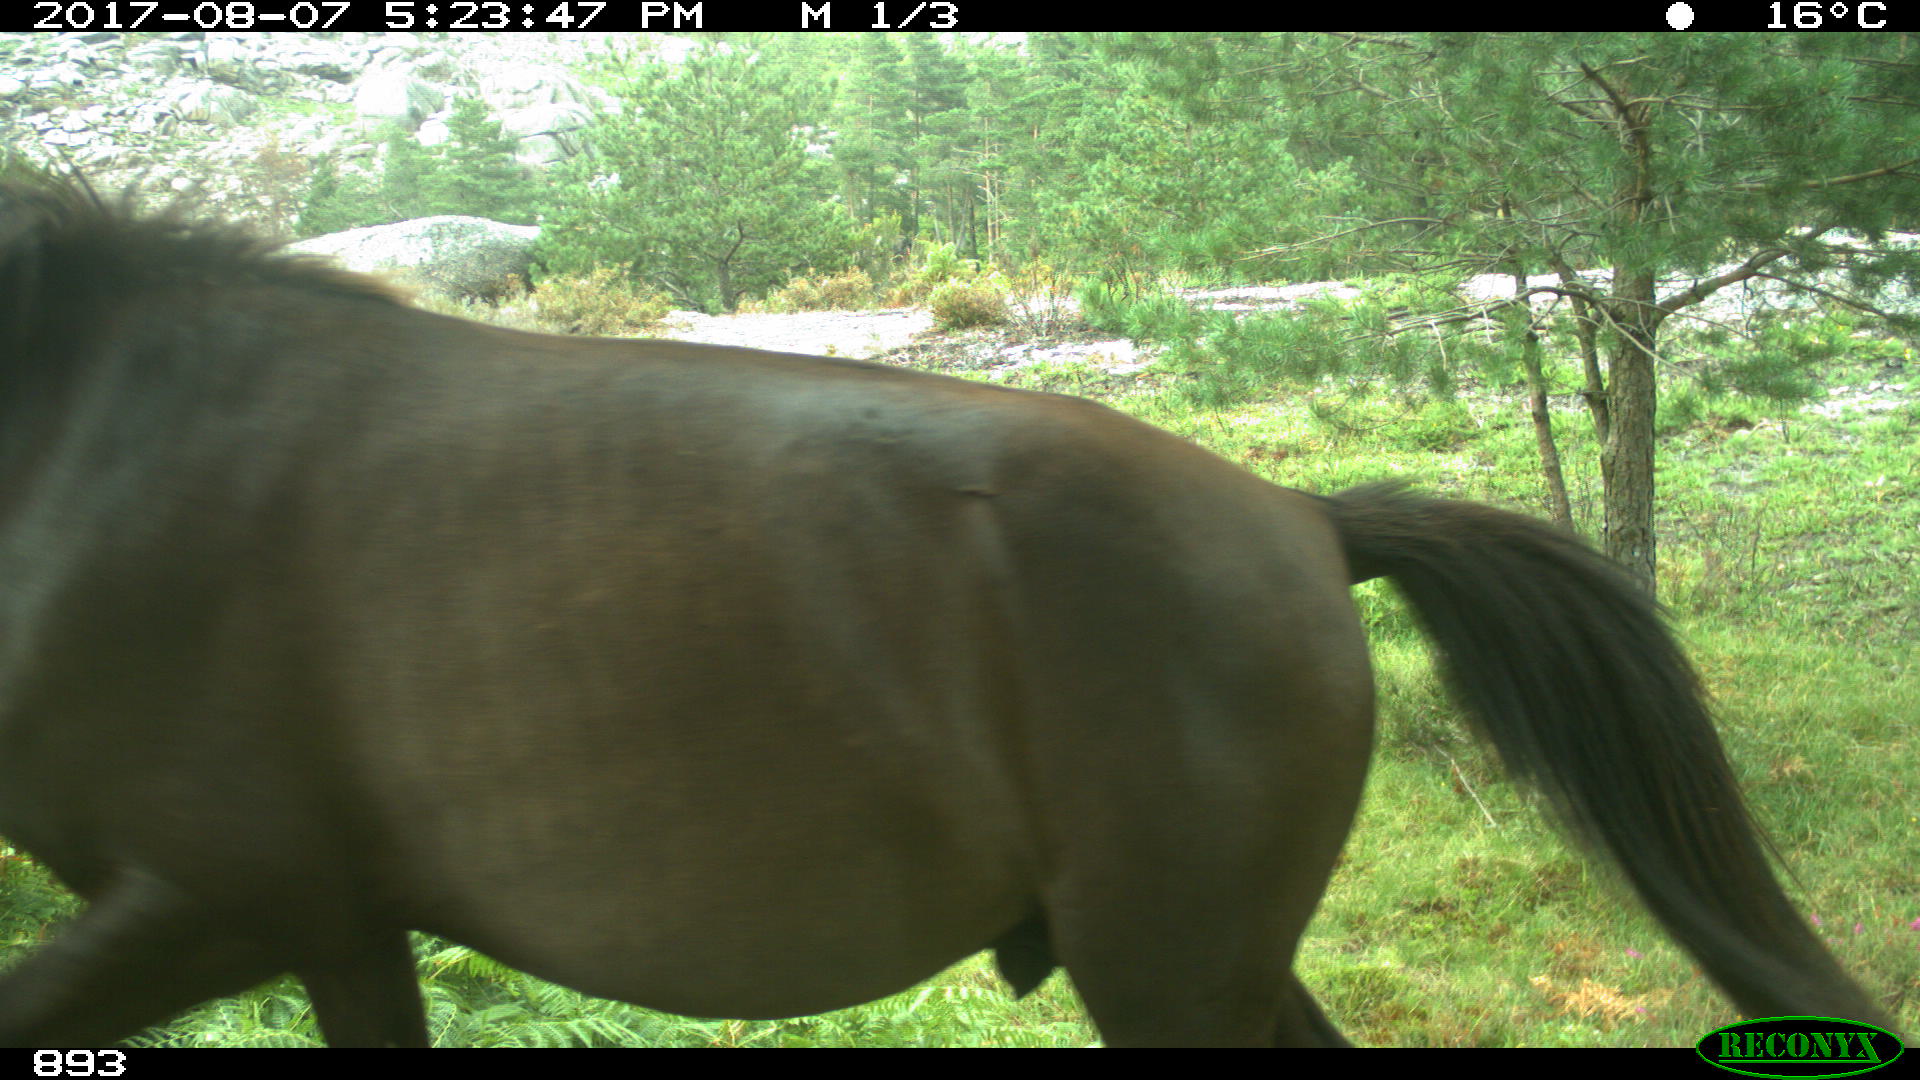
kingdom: Animalia
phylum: Chordata
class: Mammalia
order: Perissodactyla
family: Equidae
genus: Equus
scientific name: Equus caballus
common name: Horse
